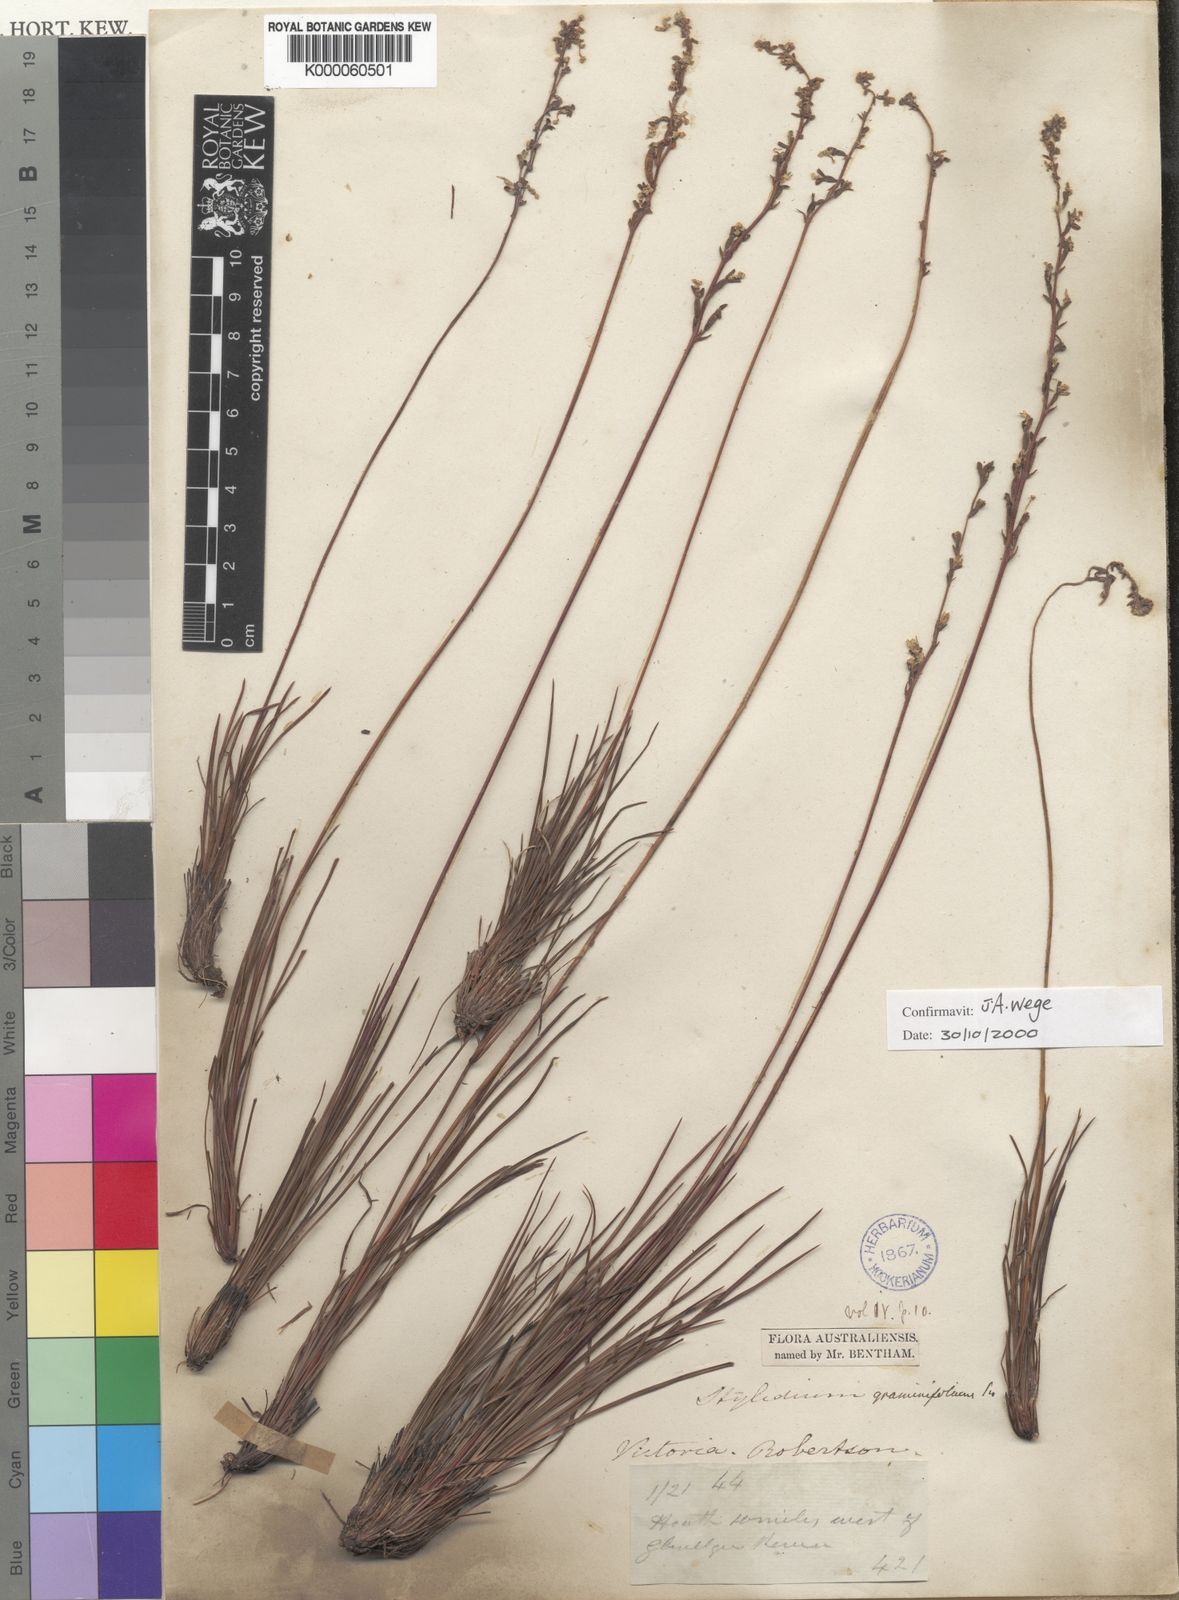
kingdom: Plantae
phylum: Tracheophyta
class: Magnoliopsida
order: Asterales
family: Stylidiaceae
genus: Stylidium
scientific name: Stylidium graminifolium
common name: Grass triggerplant
